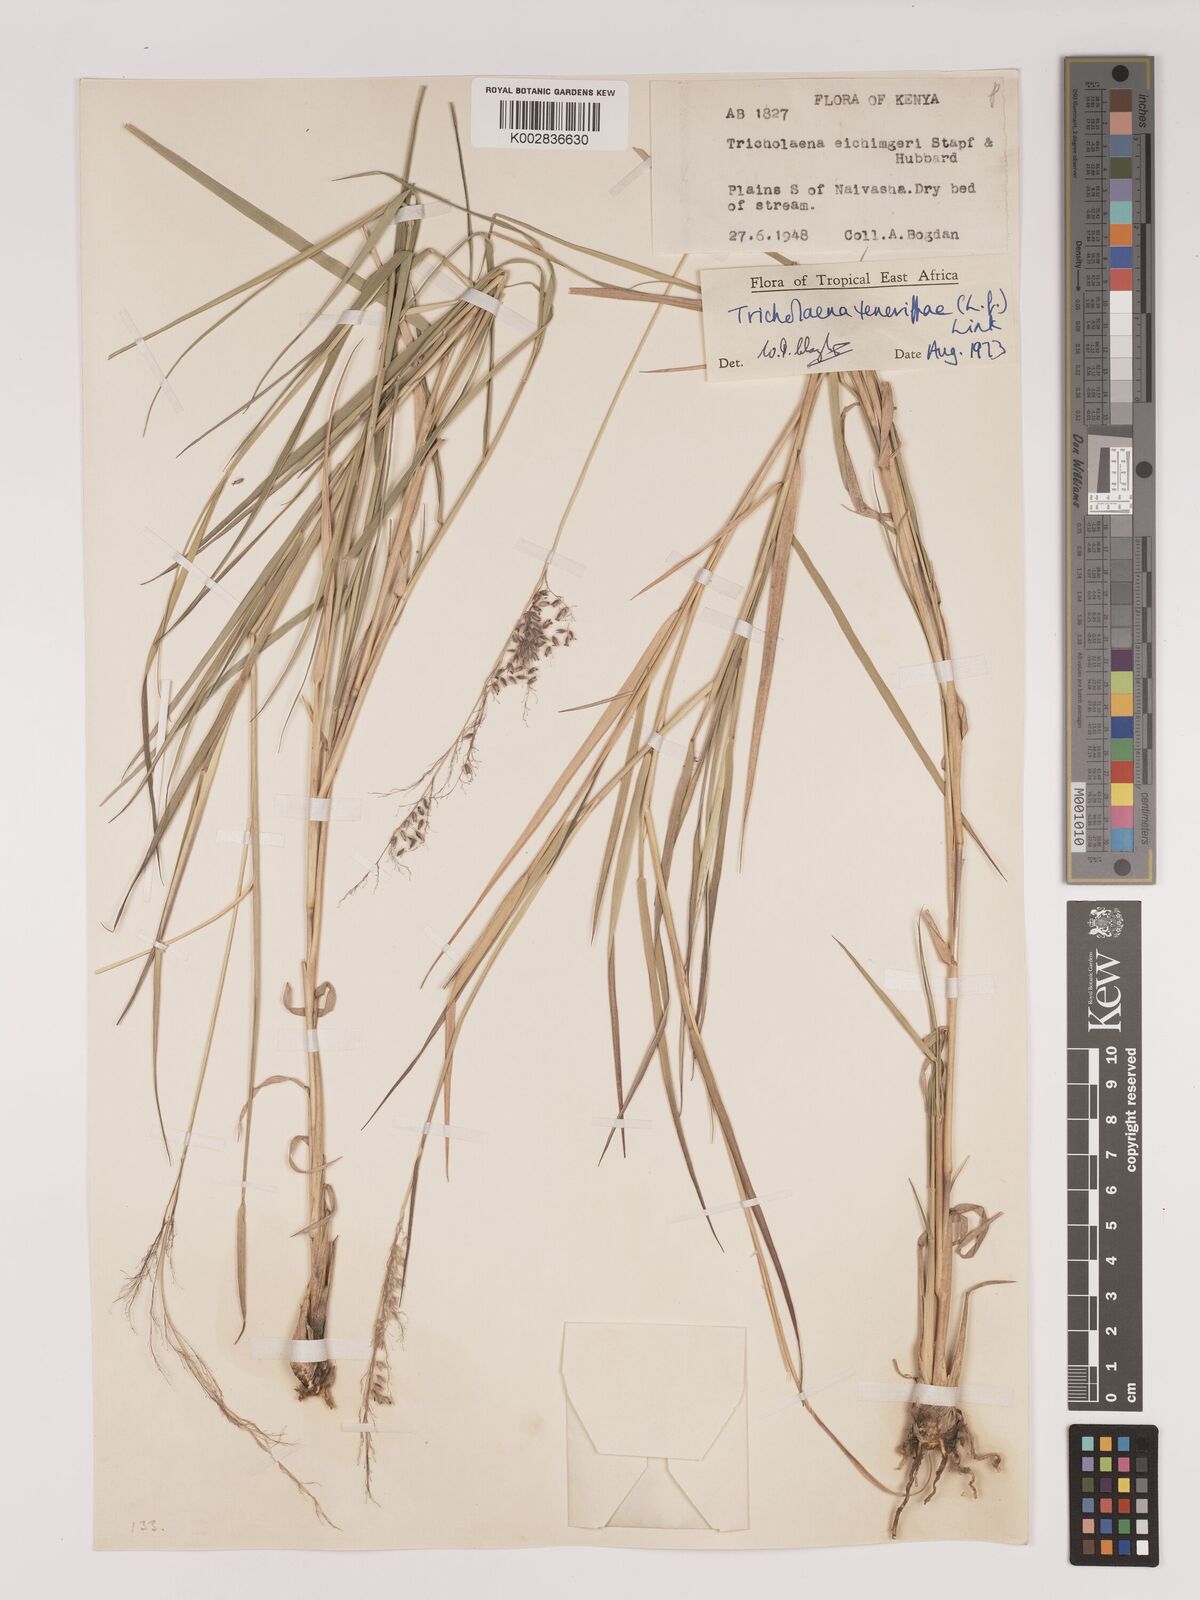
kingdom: Plantae
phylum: Tracheophyta
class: Liliopsida
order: Poales
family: Poaceae
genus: Tricholaena
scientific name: Tricholaena teneriffae
